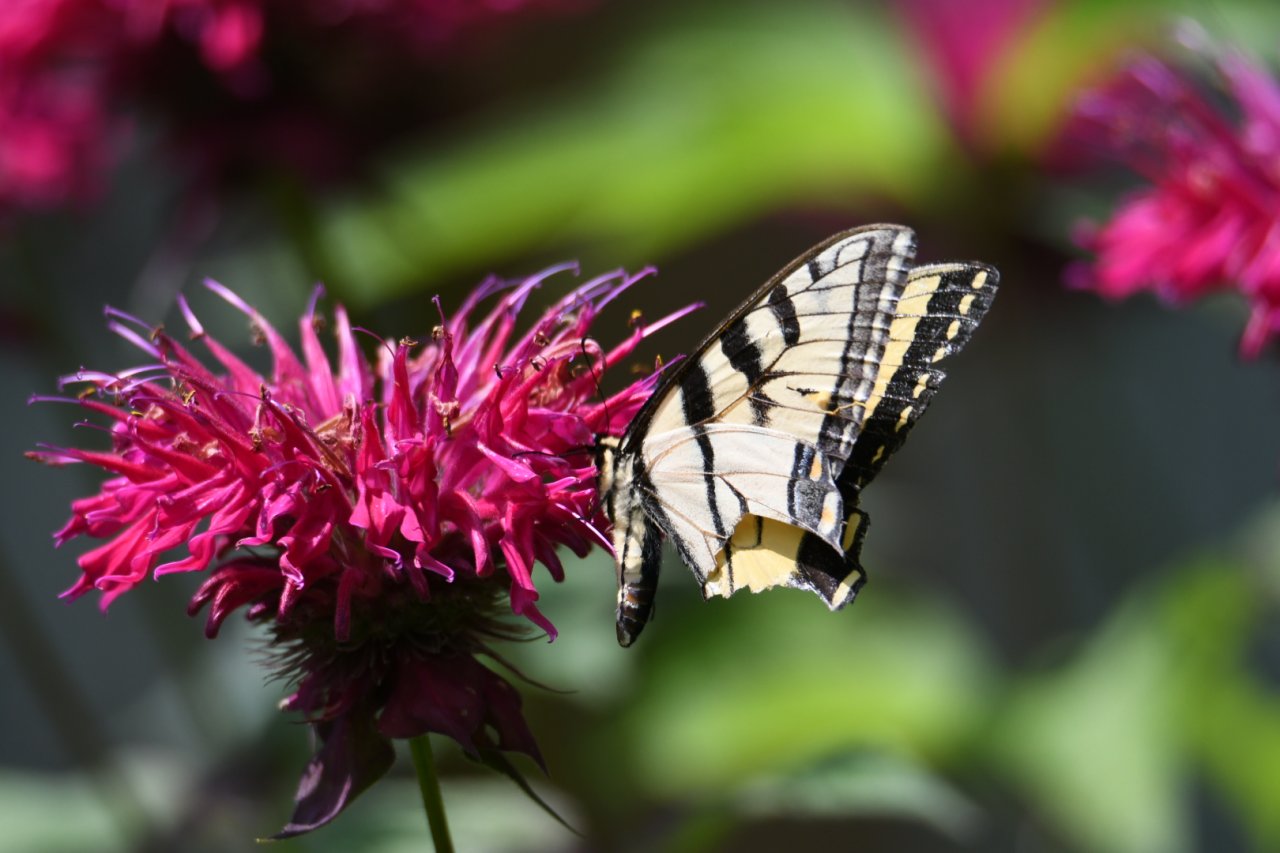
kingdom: Animalia
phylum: Arthropoda
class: Insecta
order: Lepidoptera
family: Papilionidae
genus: Pterourus
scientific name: Pterourus glaucus
